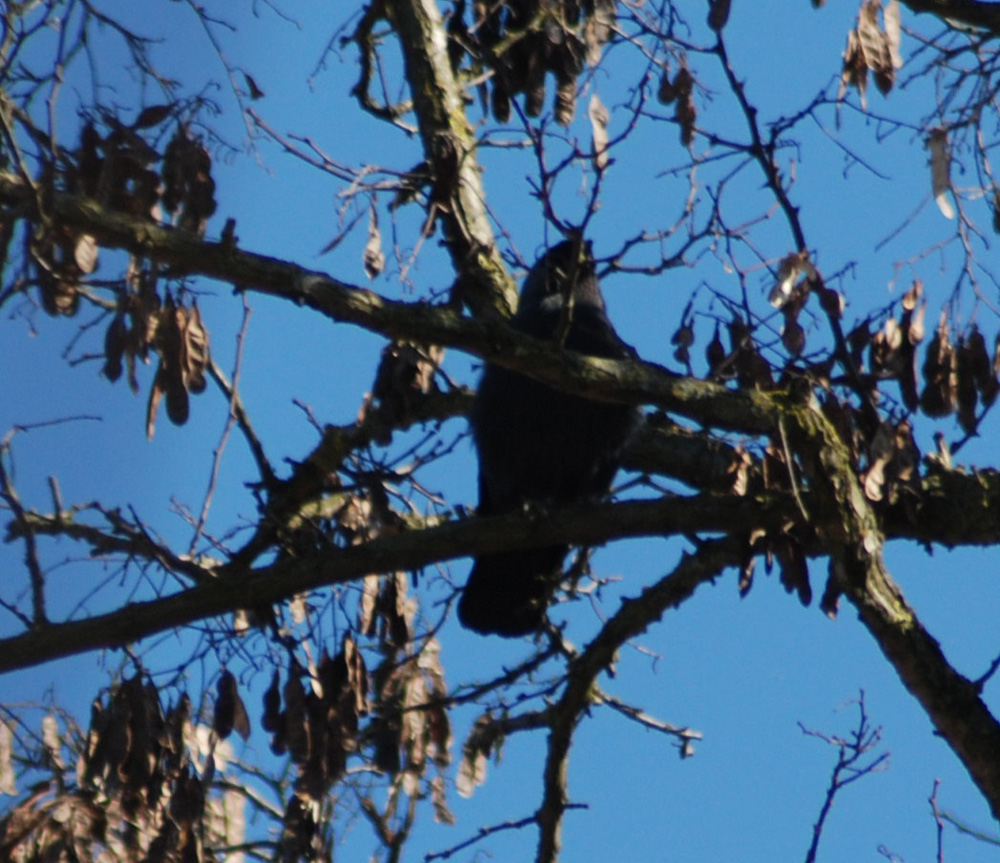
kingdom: Animalia
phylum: Chordata
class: Aves
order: Passeriformes
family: Corvidae
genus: Coloeus
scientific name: Coloeus monedula
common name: Western jackdaw
